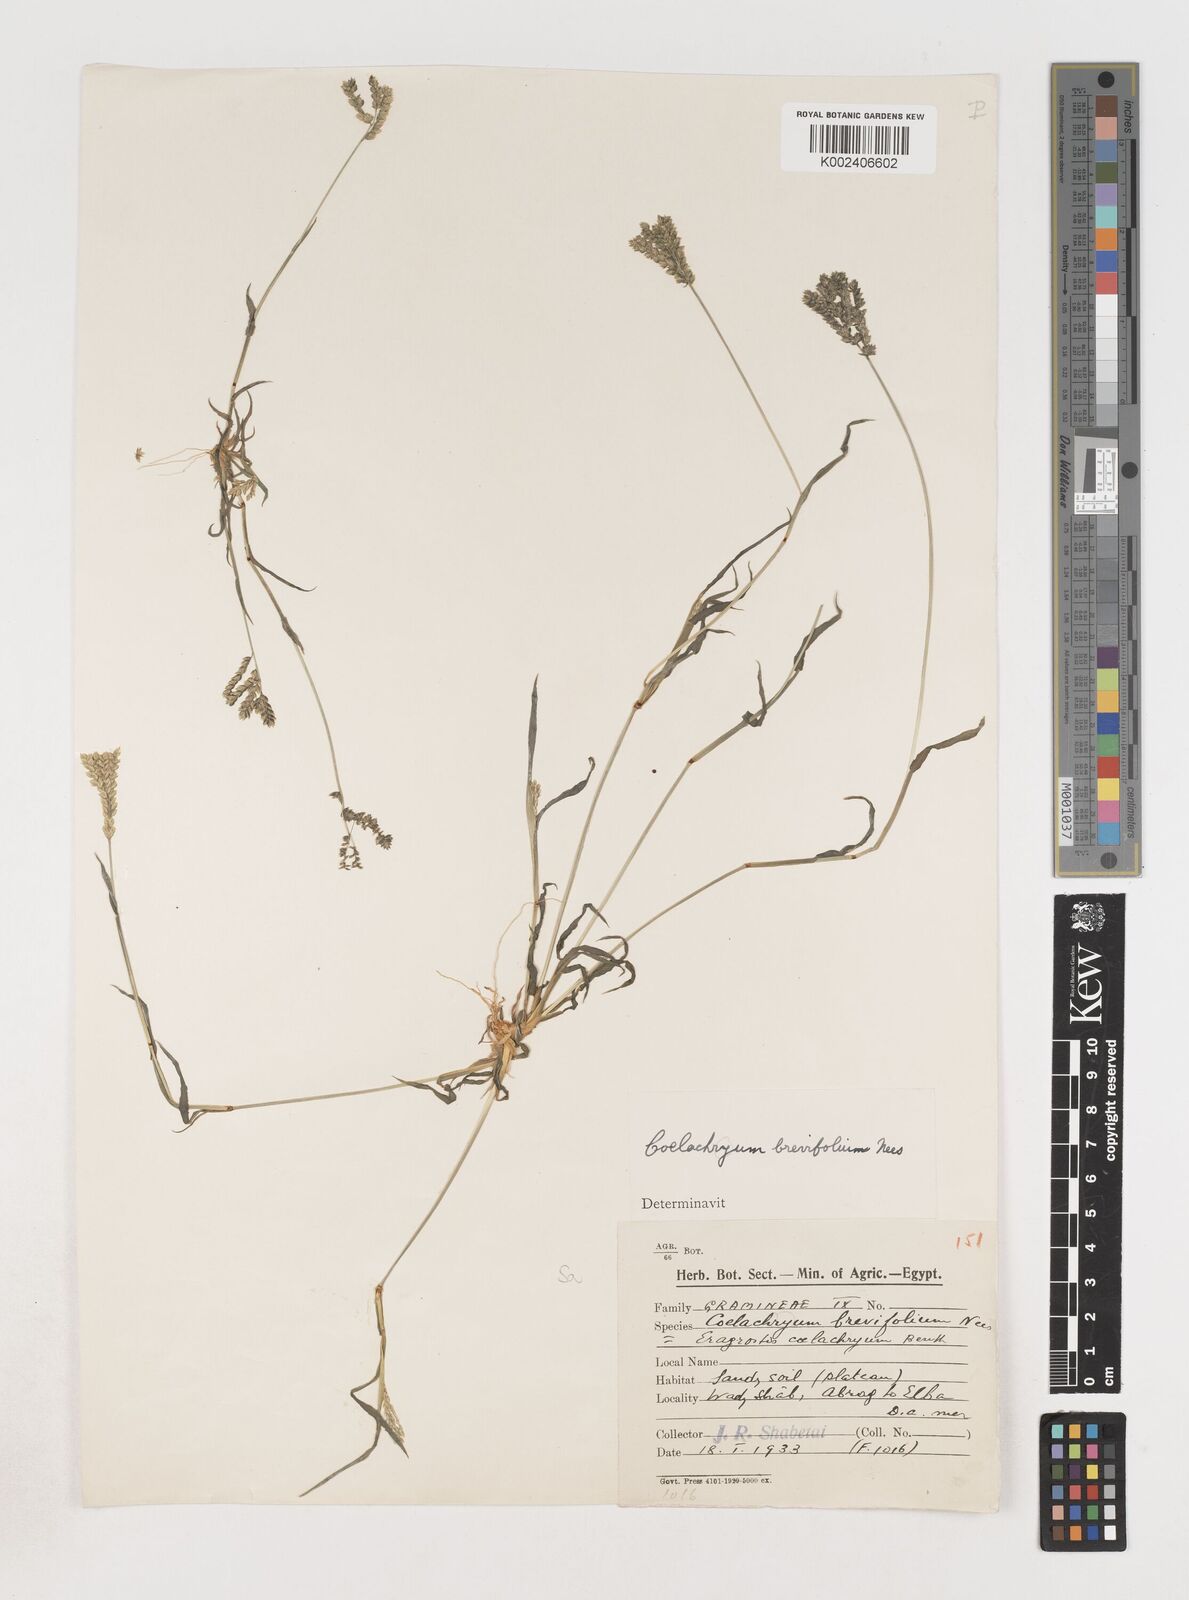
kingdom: Plantae
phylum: Tracheophyta
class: Liliopsida
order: Poales
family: Poaceae
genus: Coelachyrum
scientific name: Coelachyrum brevifolium
